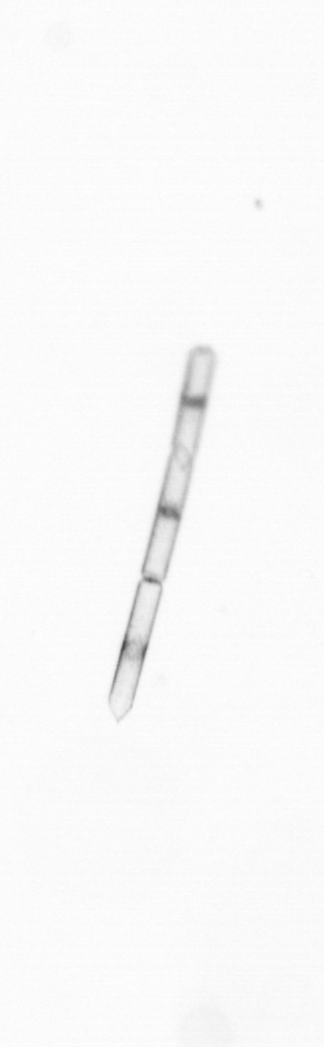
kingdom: Chromista
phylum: Ochrophyta
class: Bacillariophyceae
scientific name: Bacillariophyceae
